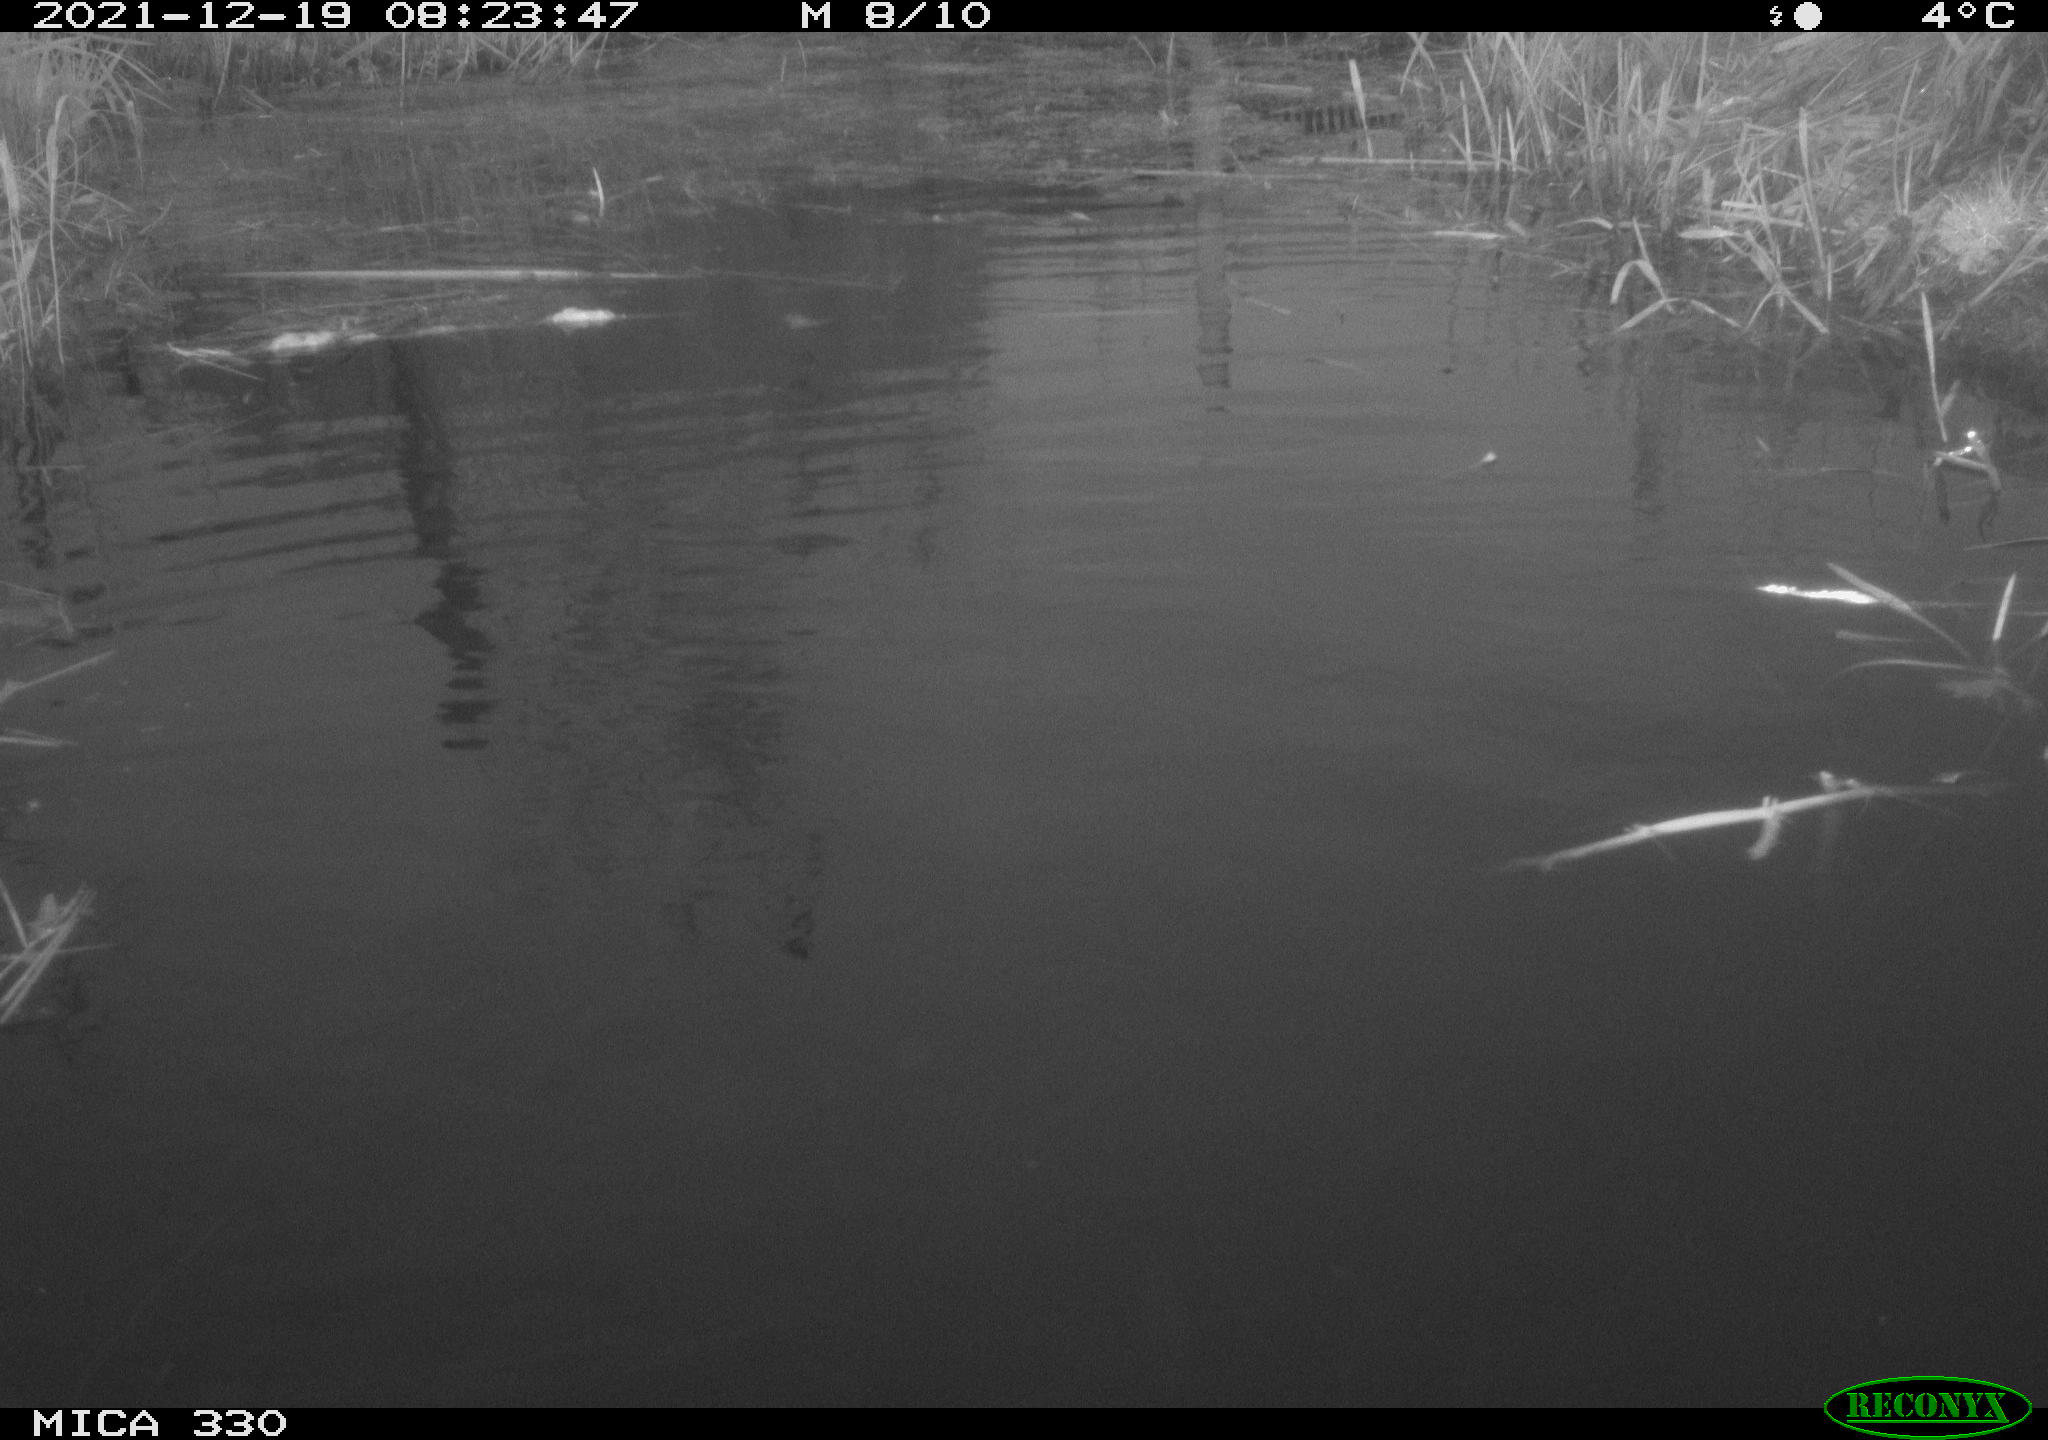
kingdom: Animalia
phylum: Chordata
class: Aves
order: Anseriformes
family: Anatidae
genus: Anas
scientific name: Anas platyrhynchos
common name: Mallard
